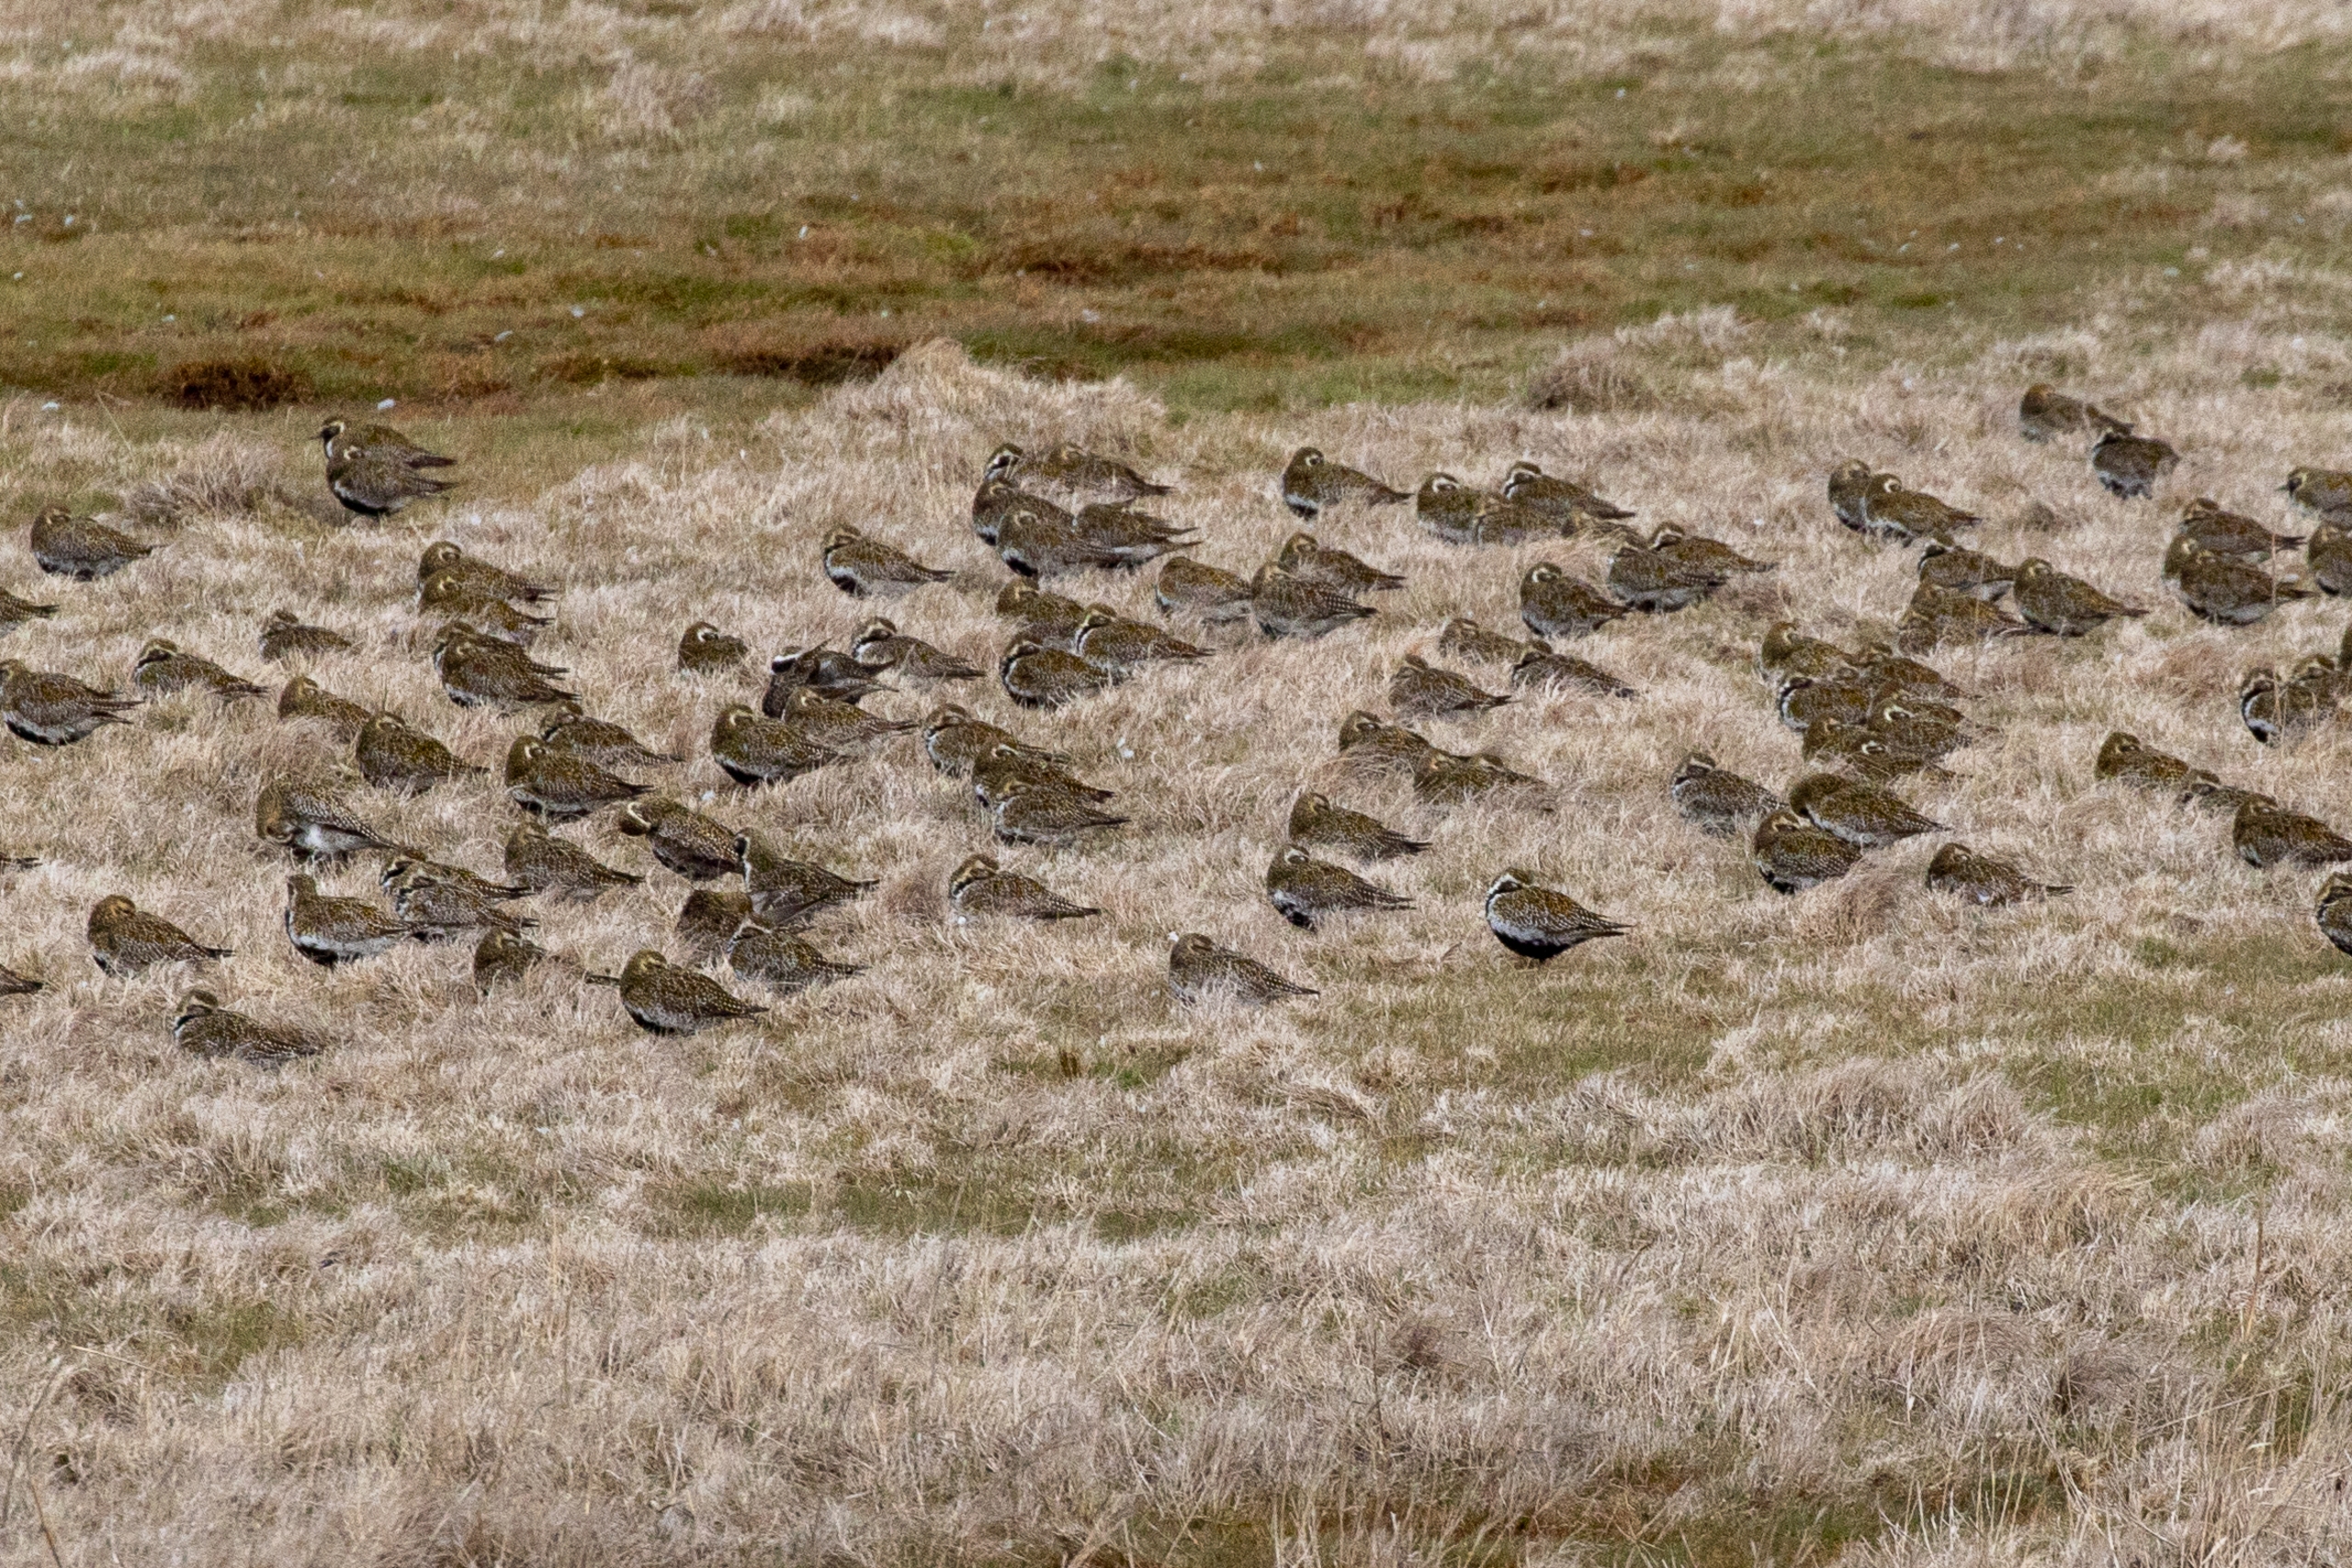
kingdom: Animalia
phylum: Chordata
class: Aves
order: Charadriiformes
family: Charadriidae
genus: Pluvialis
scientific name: Pluvialis apricaria
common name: Hjejle
